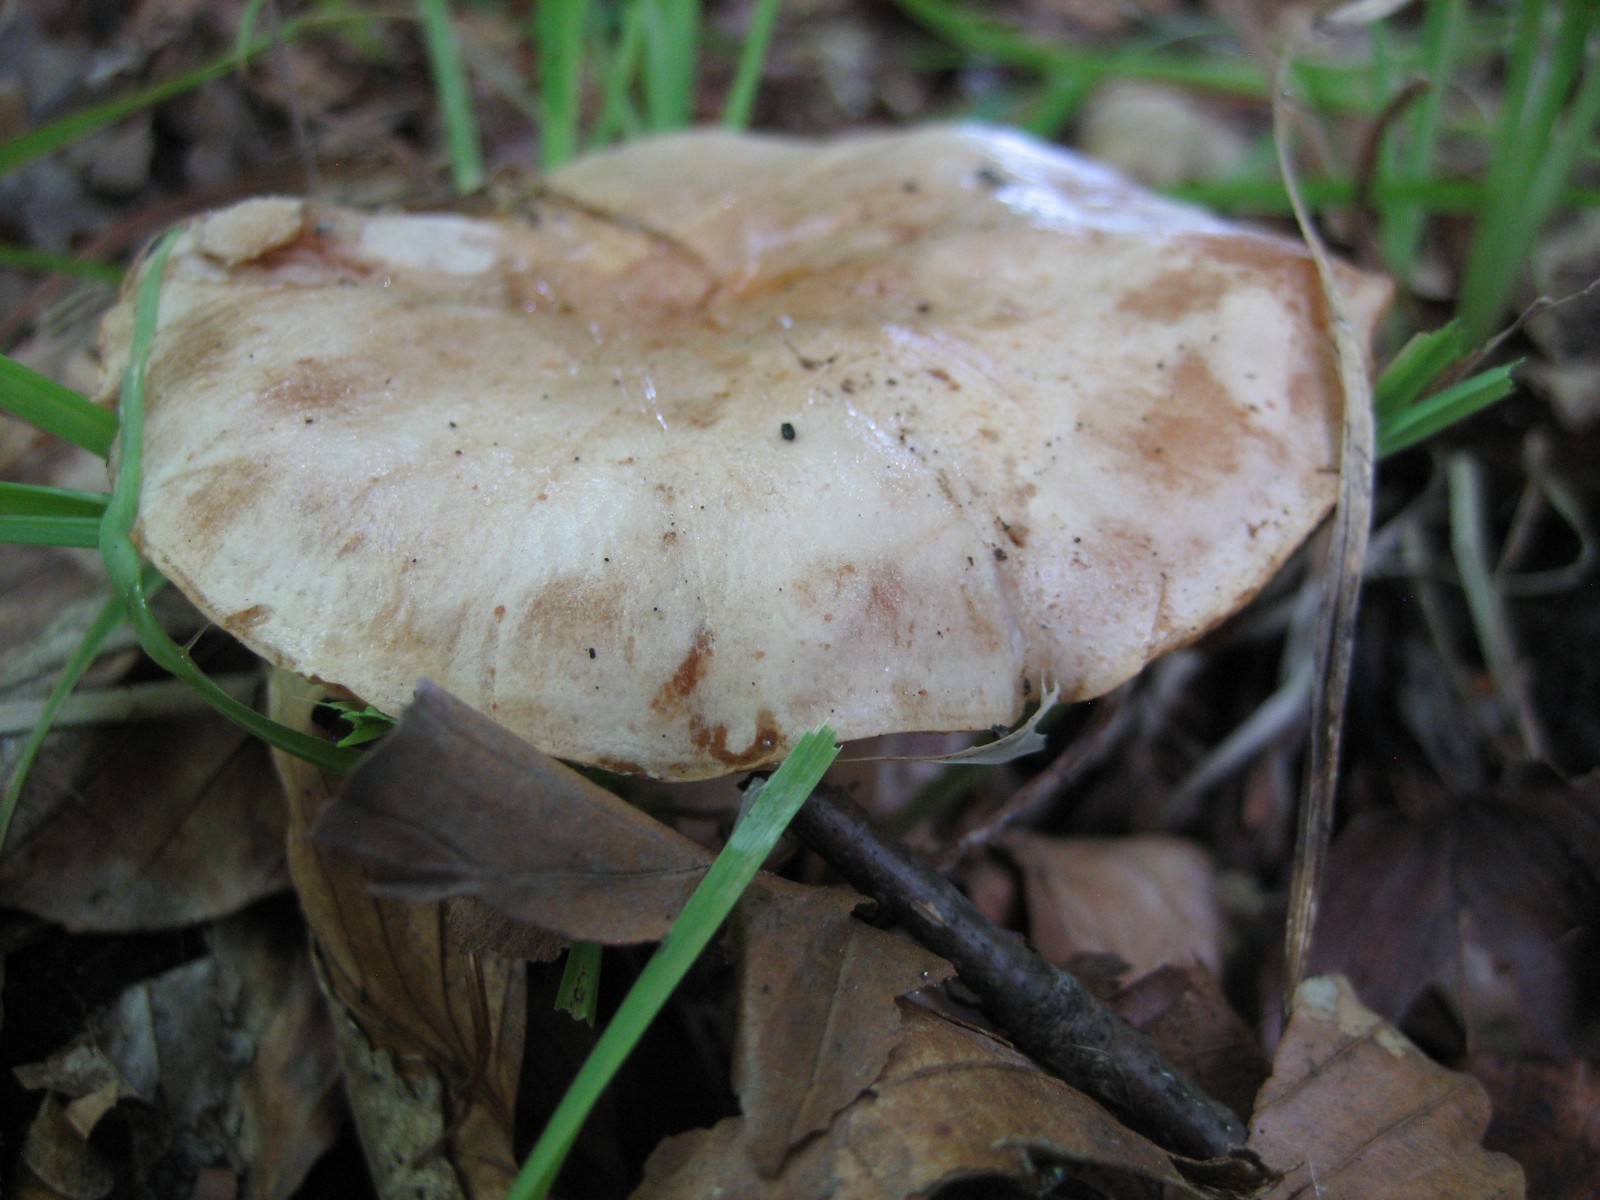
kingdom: Fungi
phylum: Basidiomycota
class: Agaricomycetes
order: Russulales
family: Russulaceae
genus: Lactarius
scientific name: Lactarius pallidus
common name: bleg mælkehat
